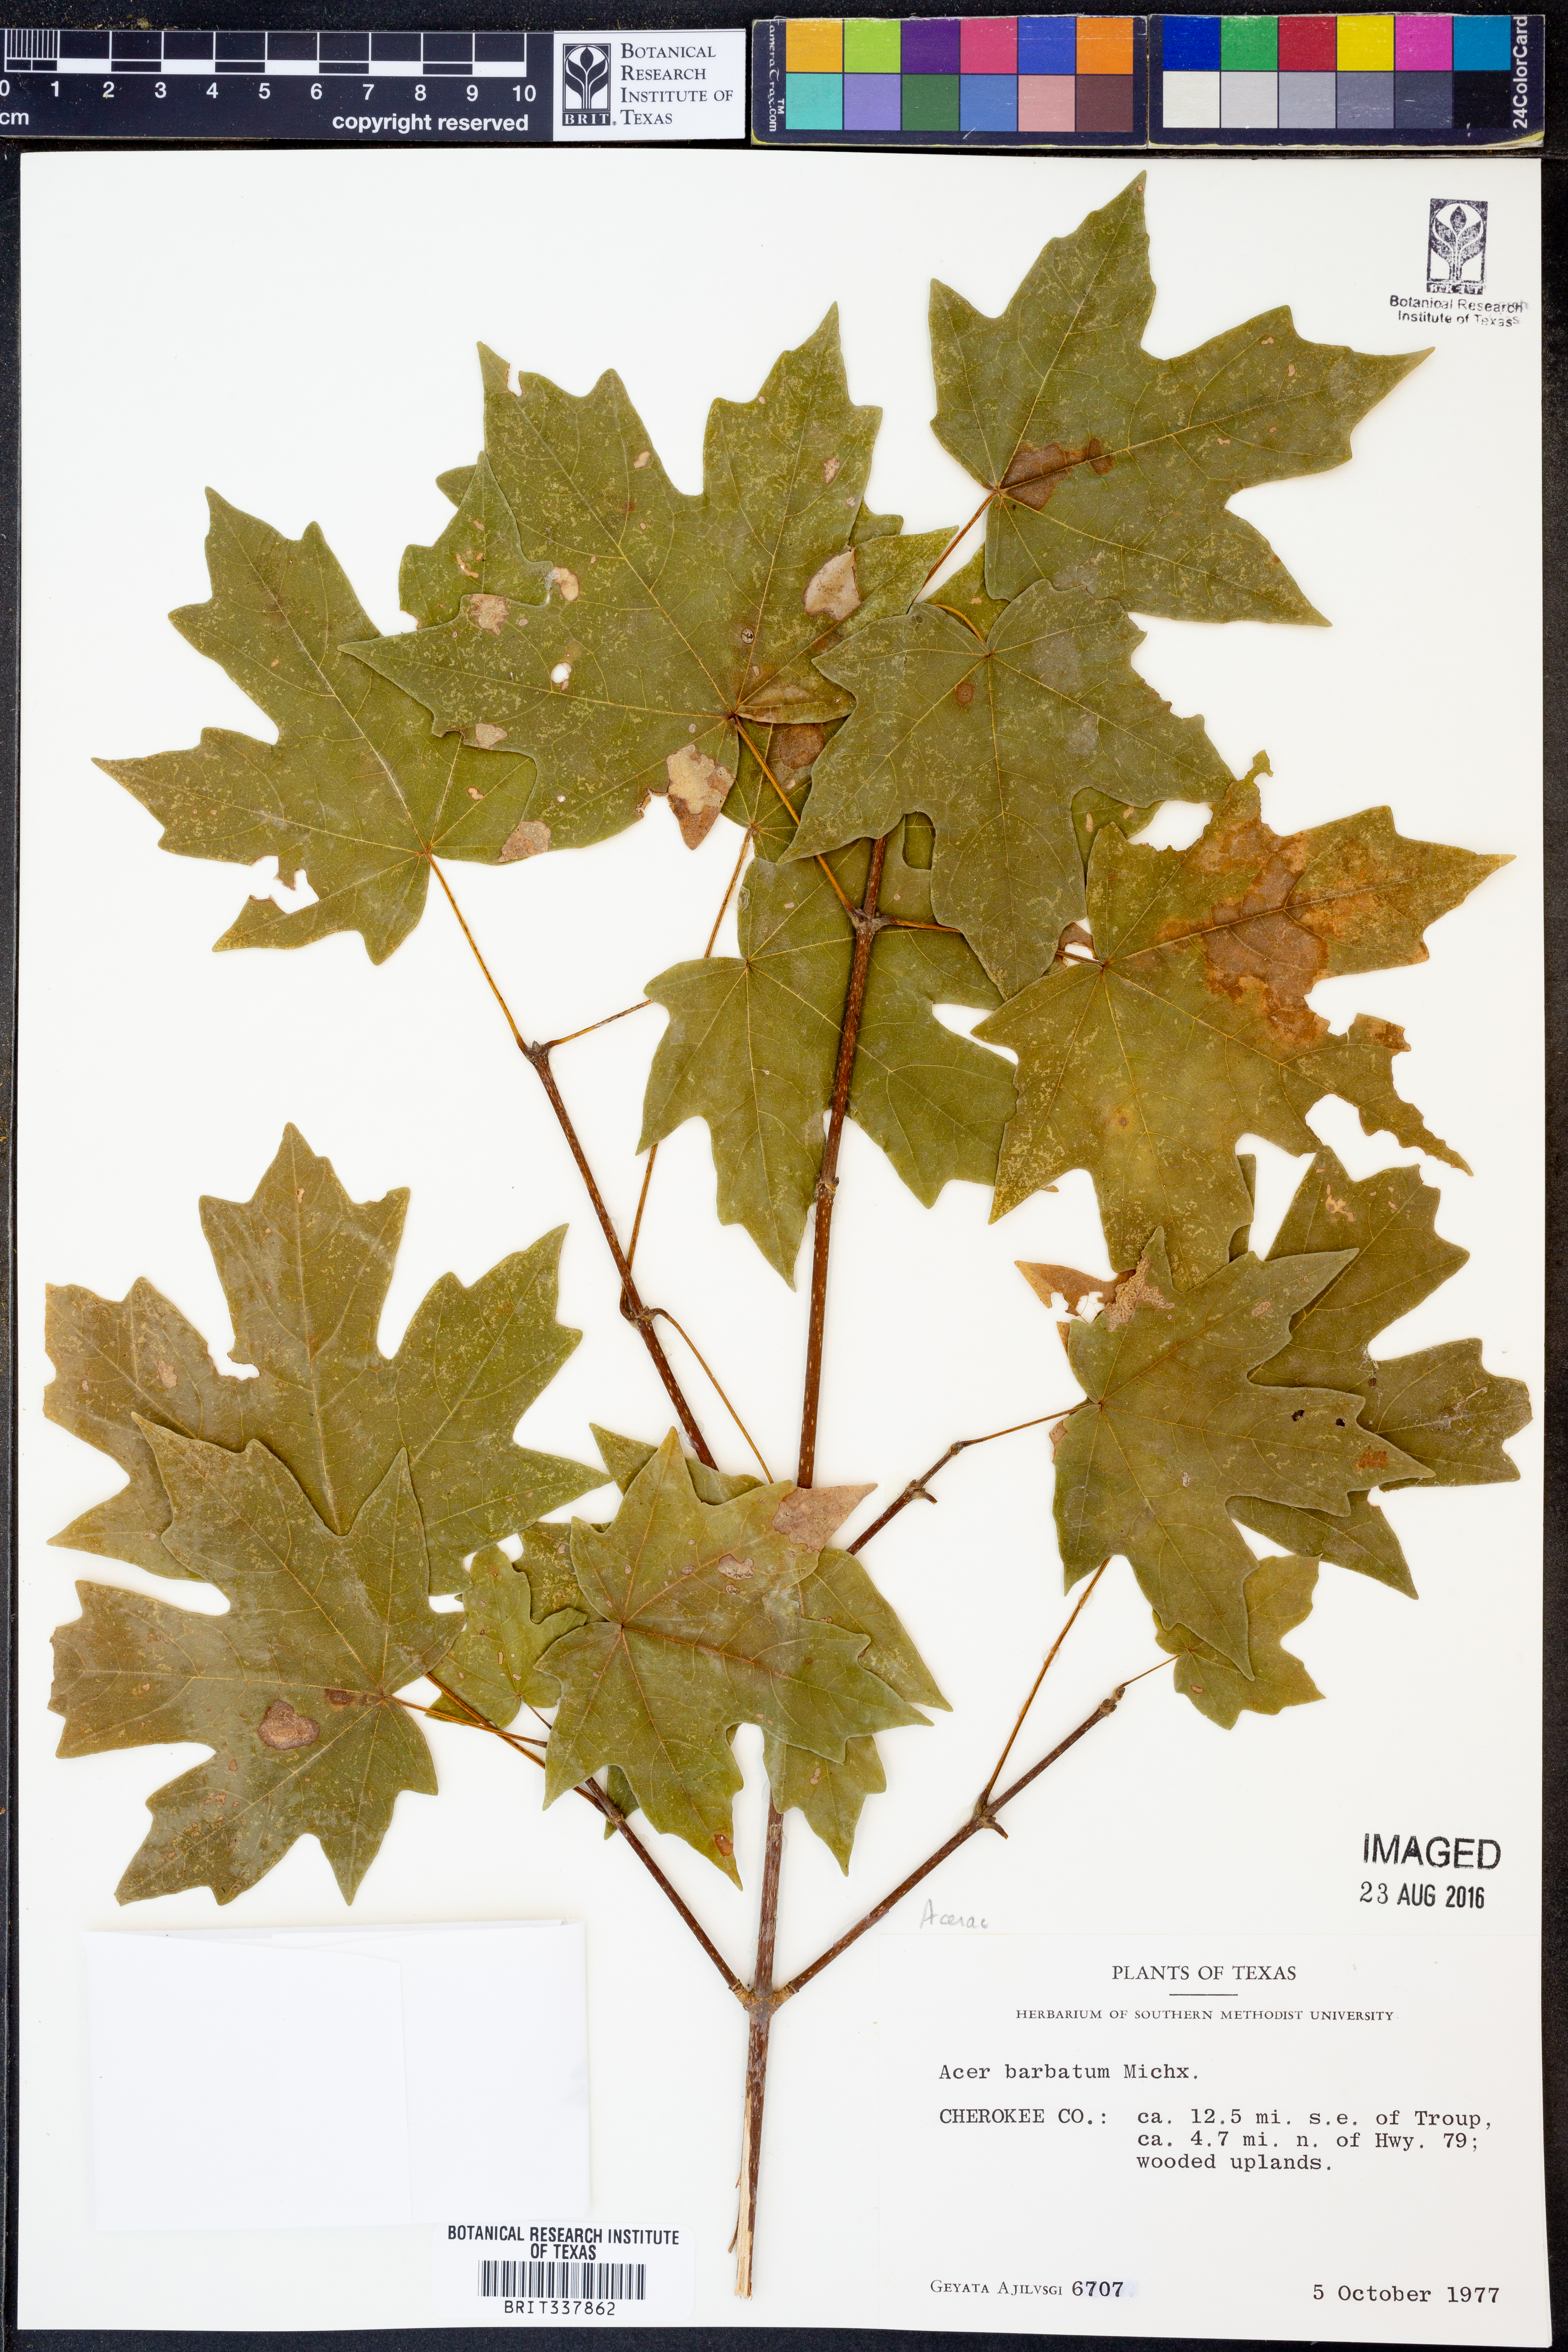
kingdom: Plantae
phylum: Tracheophyta
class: Magnoliopsida
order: Sapindales
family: Sapindaceae
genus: Acer
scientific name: Acer barbatum
